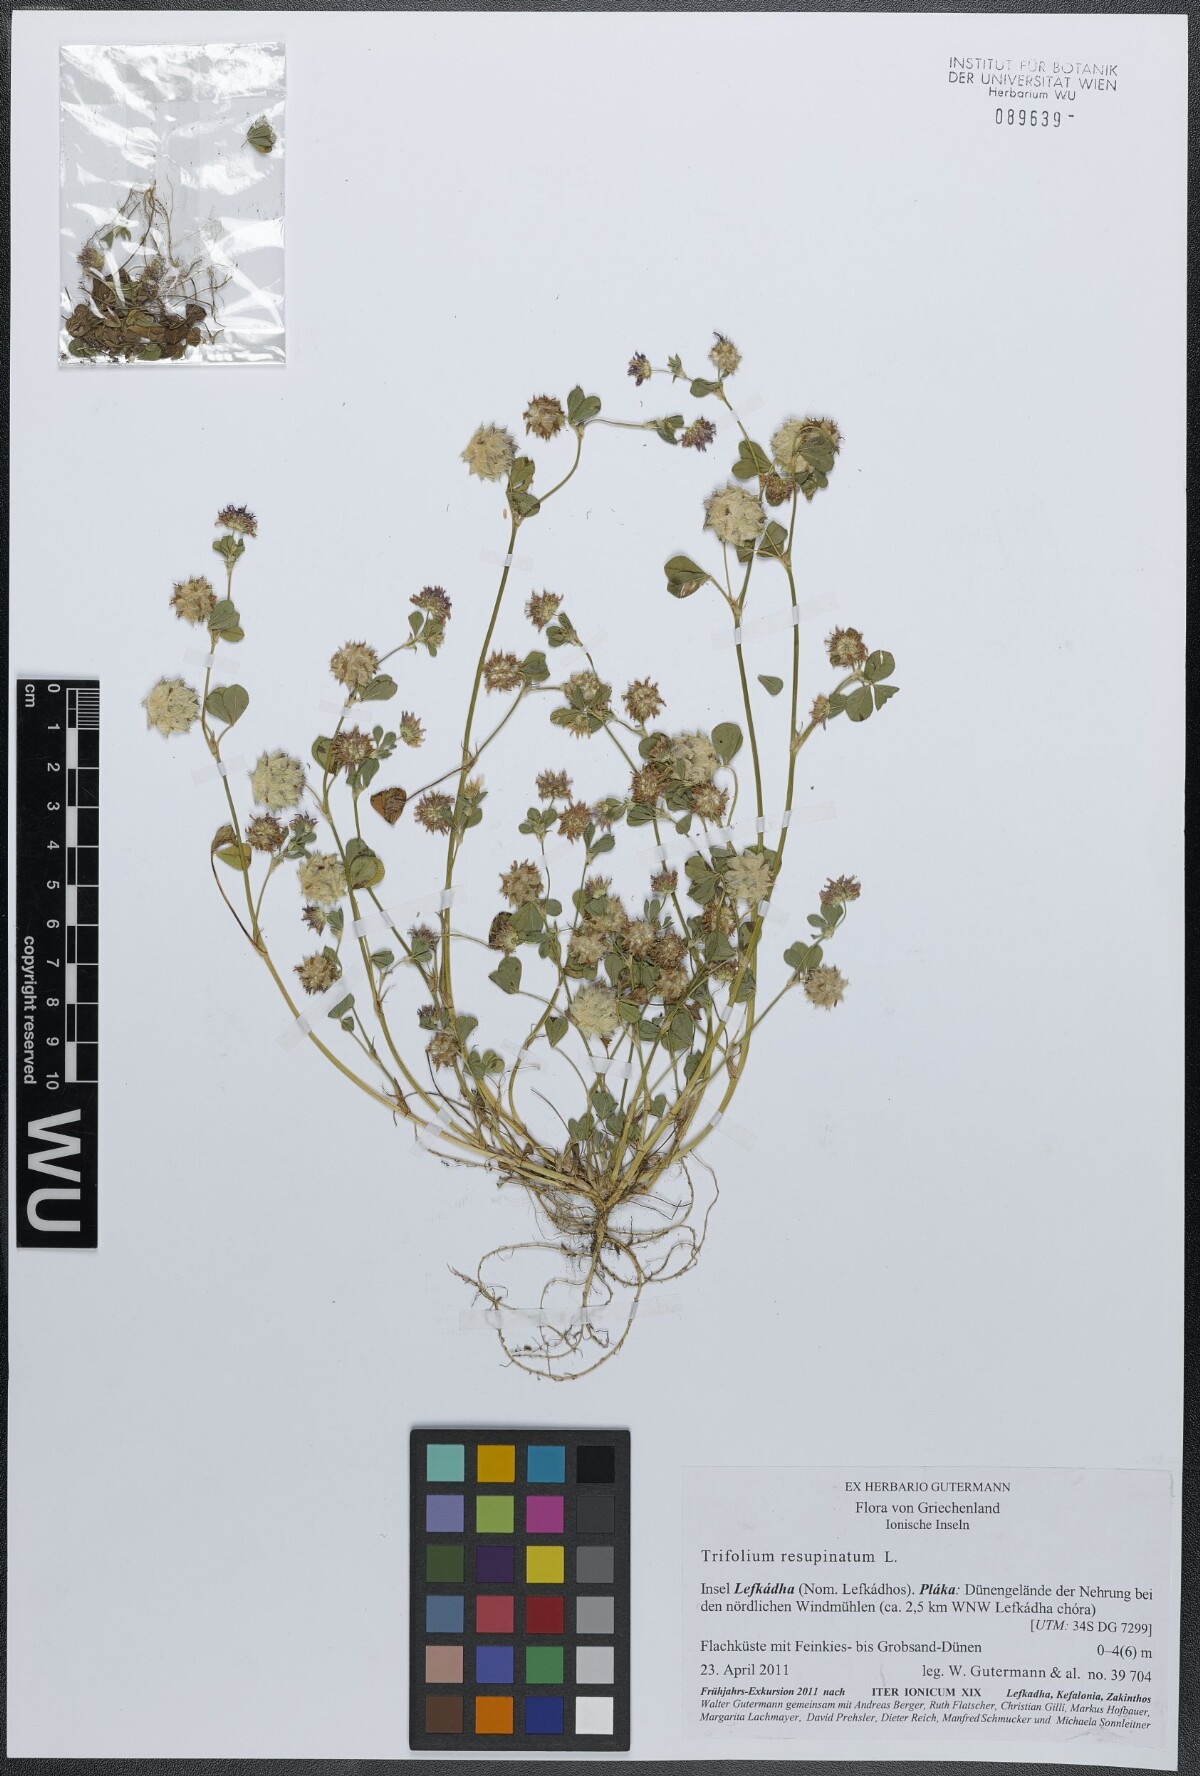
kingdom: Plantae
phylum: Tracheophyta
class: Magnoliopsida
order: Fabales
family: Fabaceae
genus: Trifolium
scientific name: Trifolium resupinatum
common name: Reversed clover
